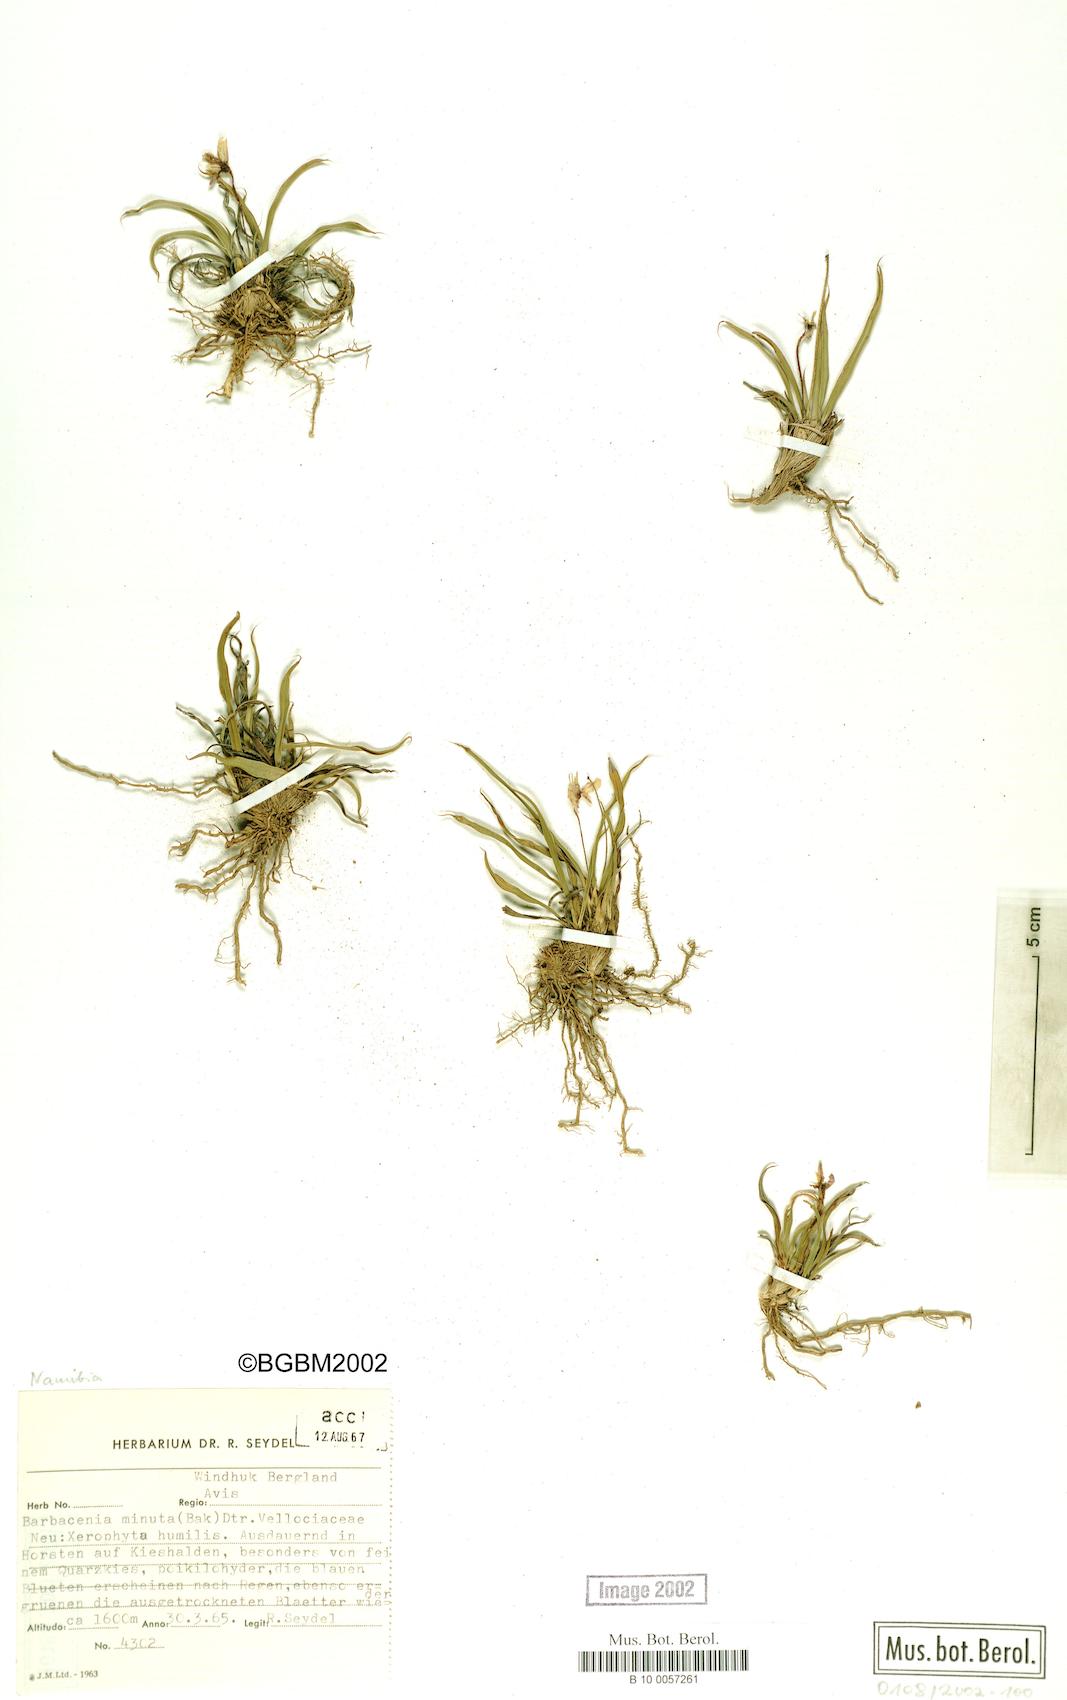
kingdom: Plantae
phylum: Tracheophyta
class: Liliopsida
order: Pandanales
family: Velloziaceae
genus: Xerophyta
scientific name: Xerophyta elegans
